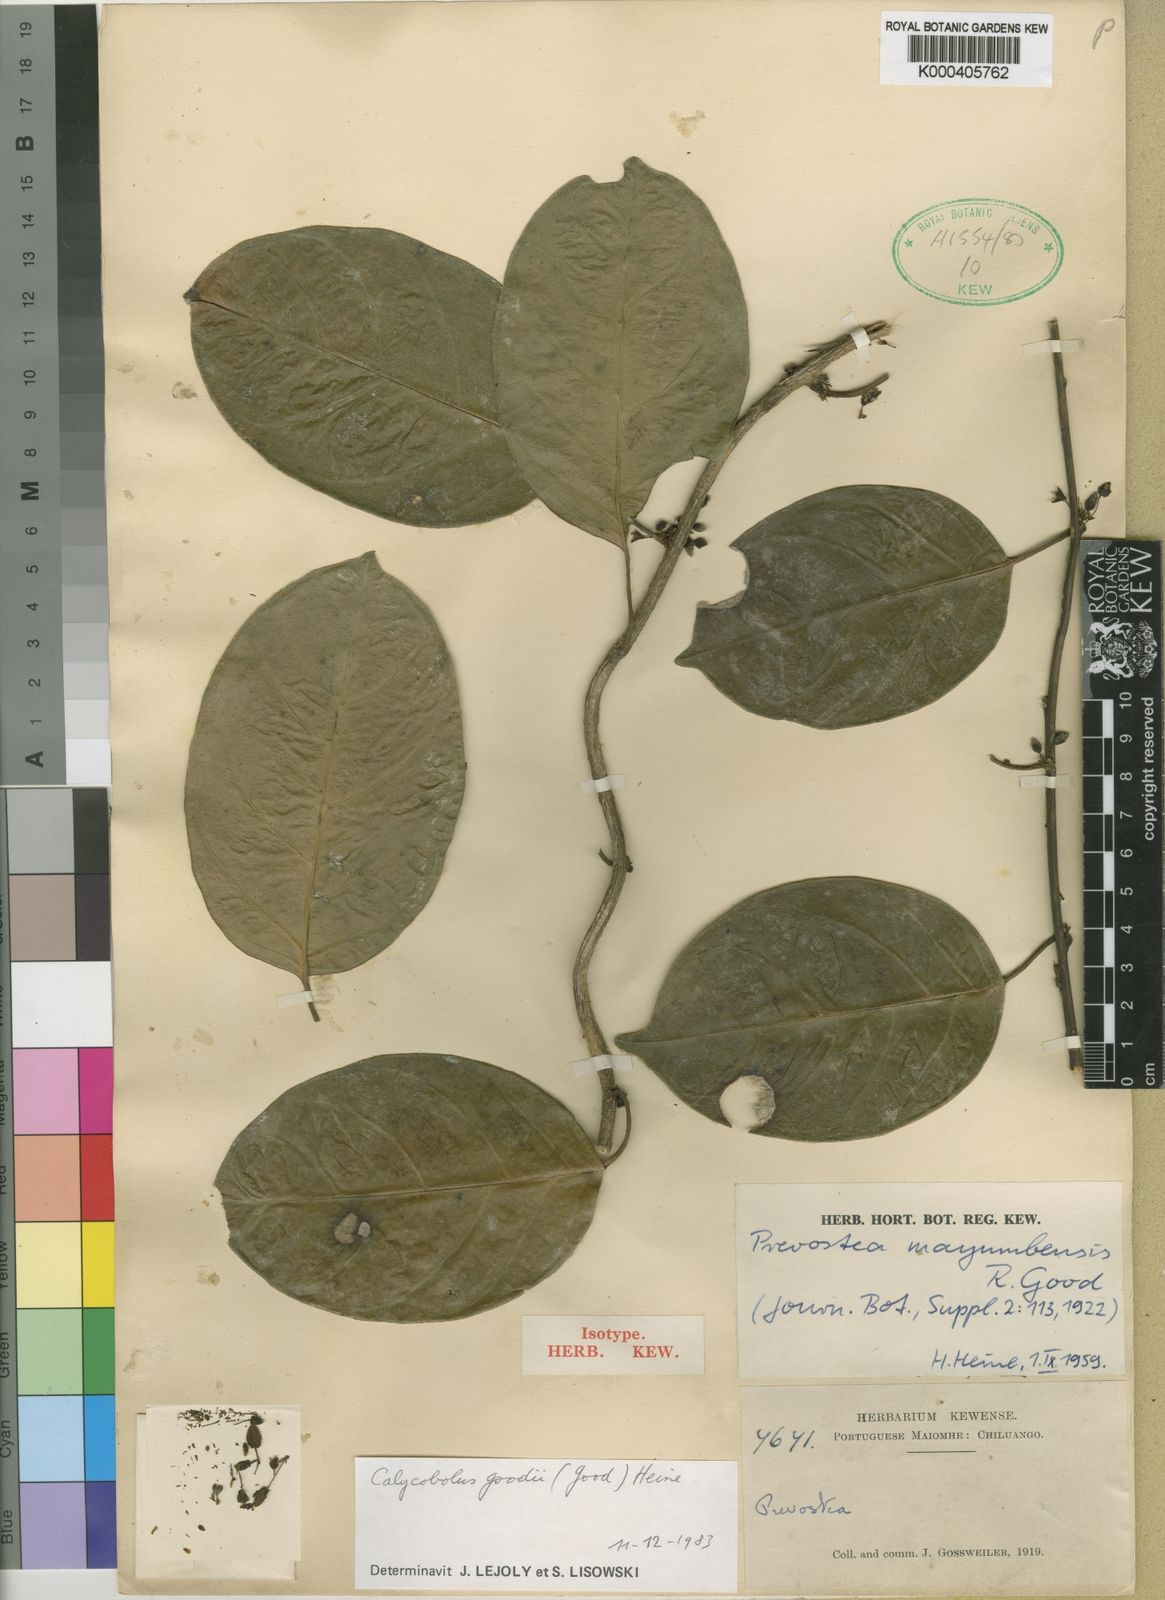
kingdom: Plantae
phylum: Tracheophyta
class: Magnoliopsida
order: Solanales
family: Convolvulaceae
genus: Calycobolus
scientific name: Calycobolus goodii
